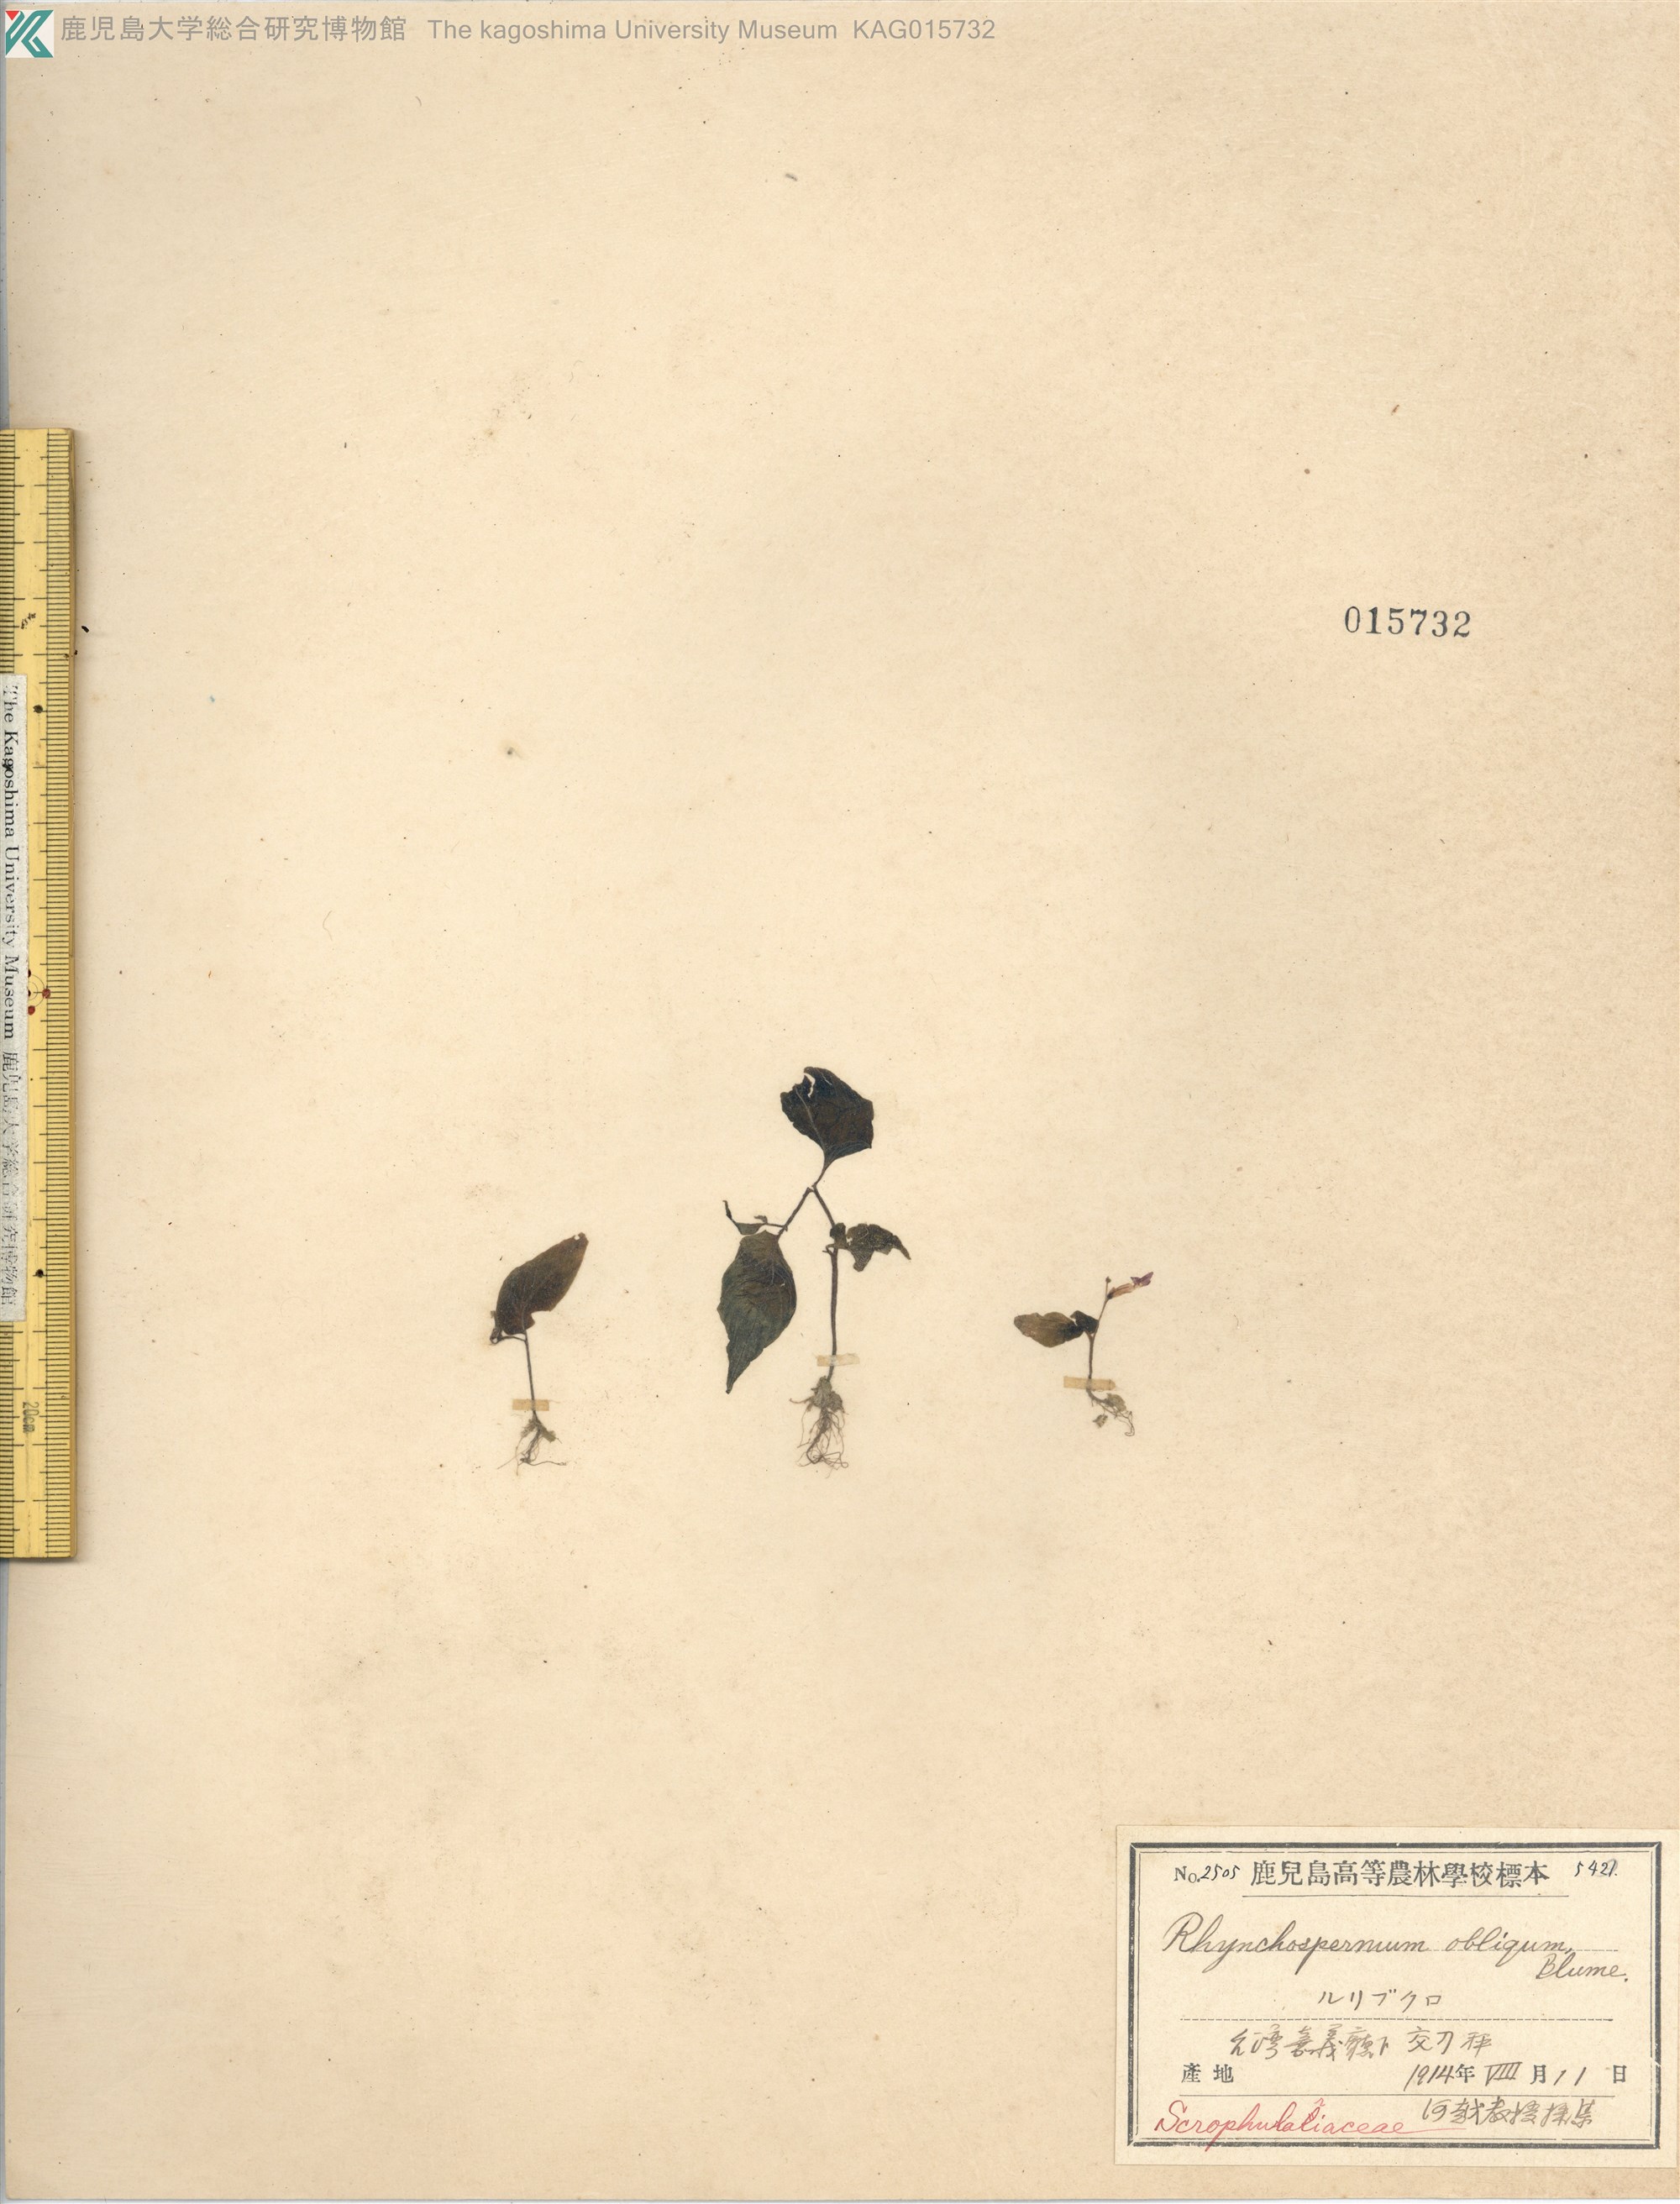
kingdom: Plantae
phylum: Tracheophyta
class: Magnoliopsida
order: Lamiales
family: Gesneriaceae
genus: Rhynchoglossum
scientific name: Rhynchoglossum obliquum
